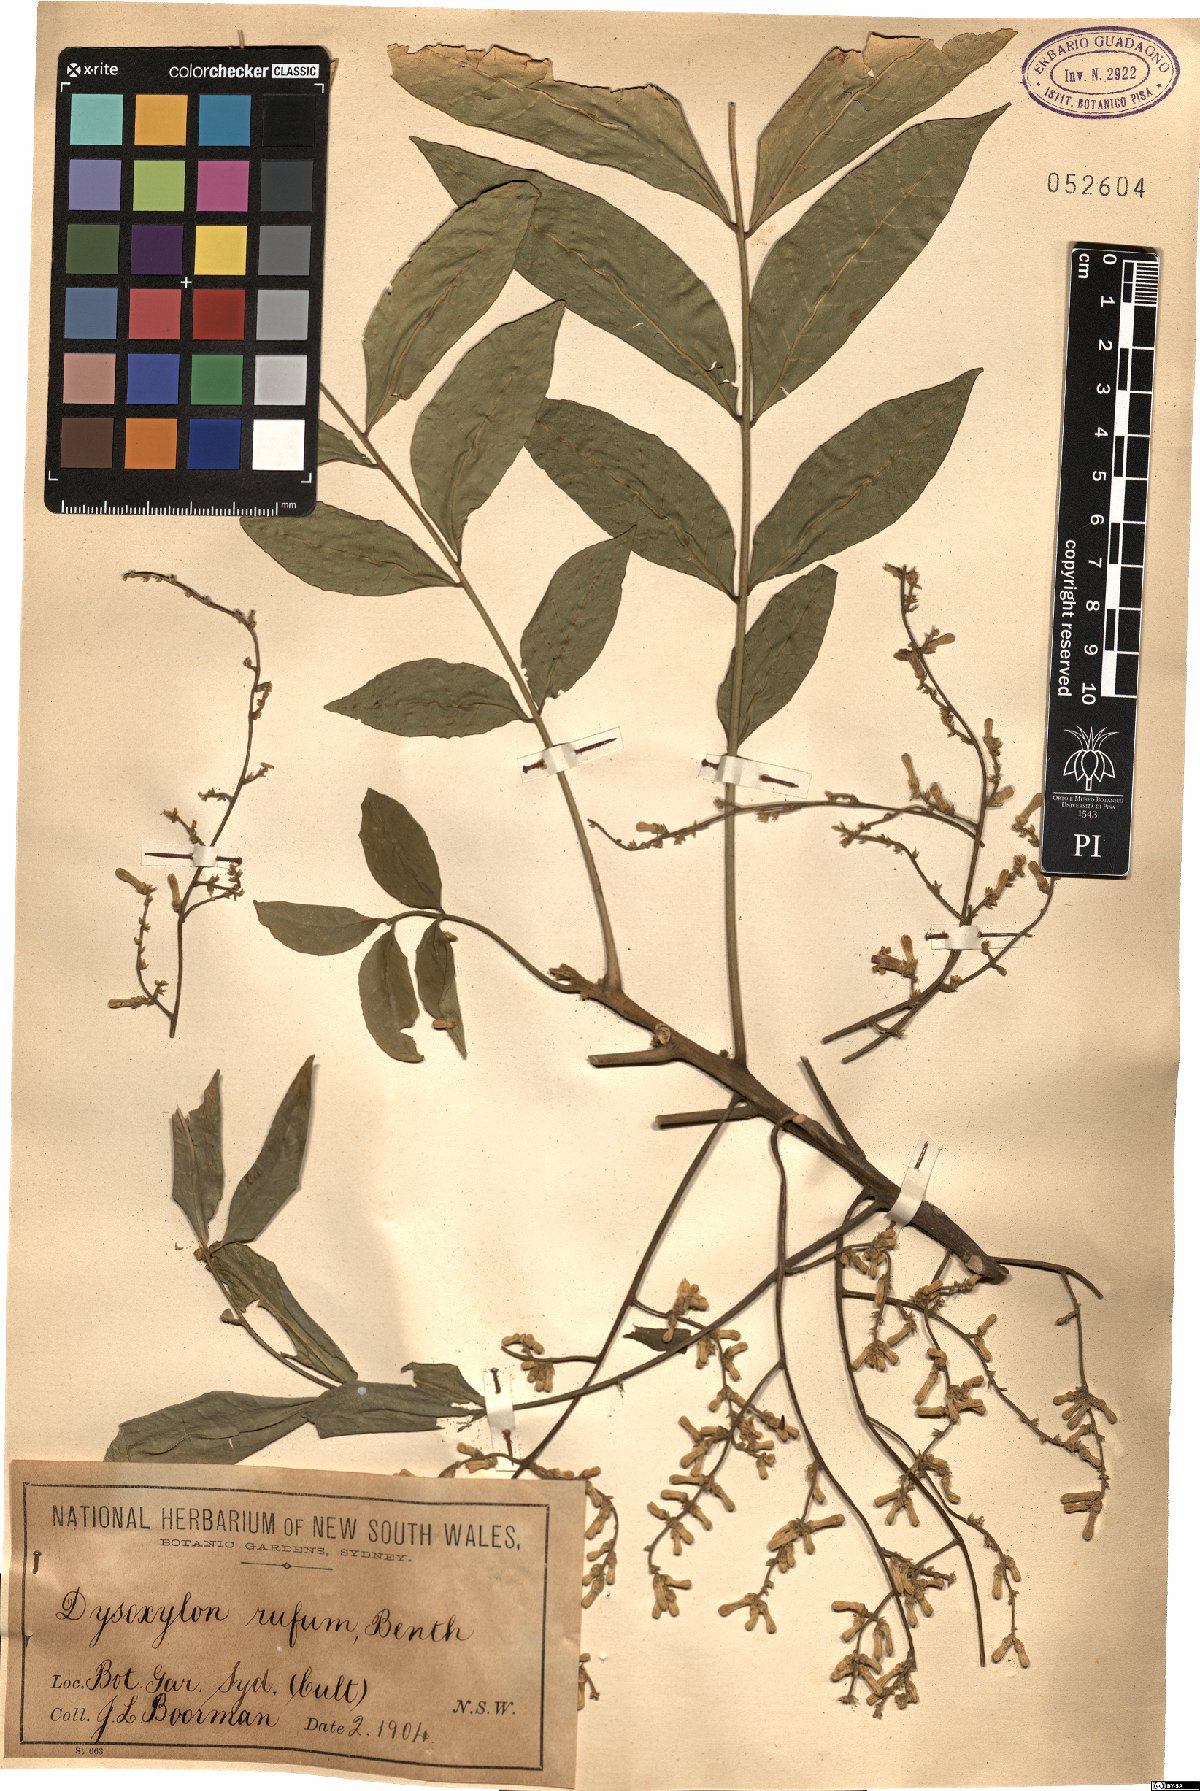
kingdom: Plantae
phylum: Tracheophyta
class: Magnoliopsida
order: Sapindales
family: Meliaceae
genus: Didymocheton
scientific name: Didymocheton rufus
